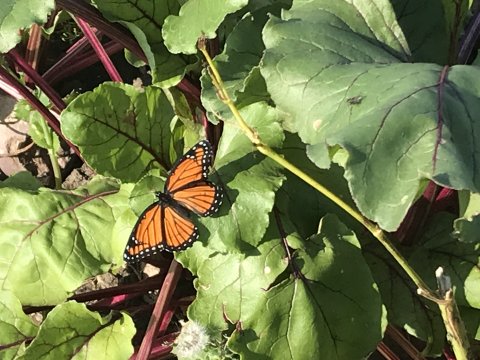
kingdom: Animalia
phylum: Arthropoda
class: Insecta
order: Lepidoptera
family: Nymphalidae
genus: Limenitis
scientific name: Limenitis archippus
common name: Viceroy
